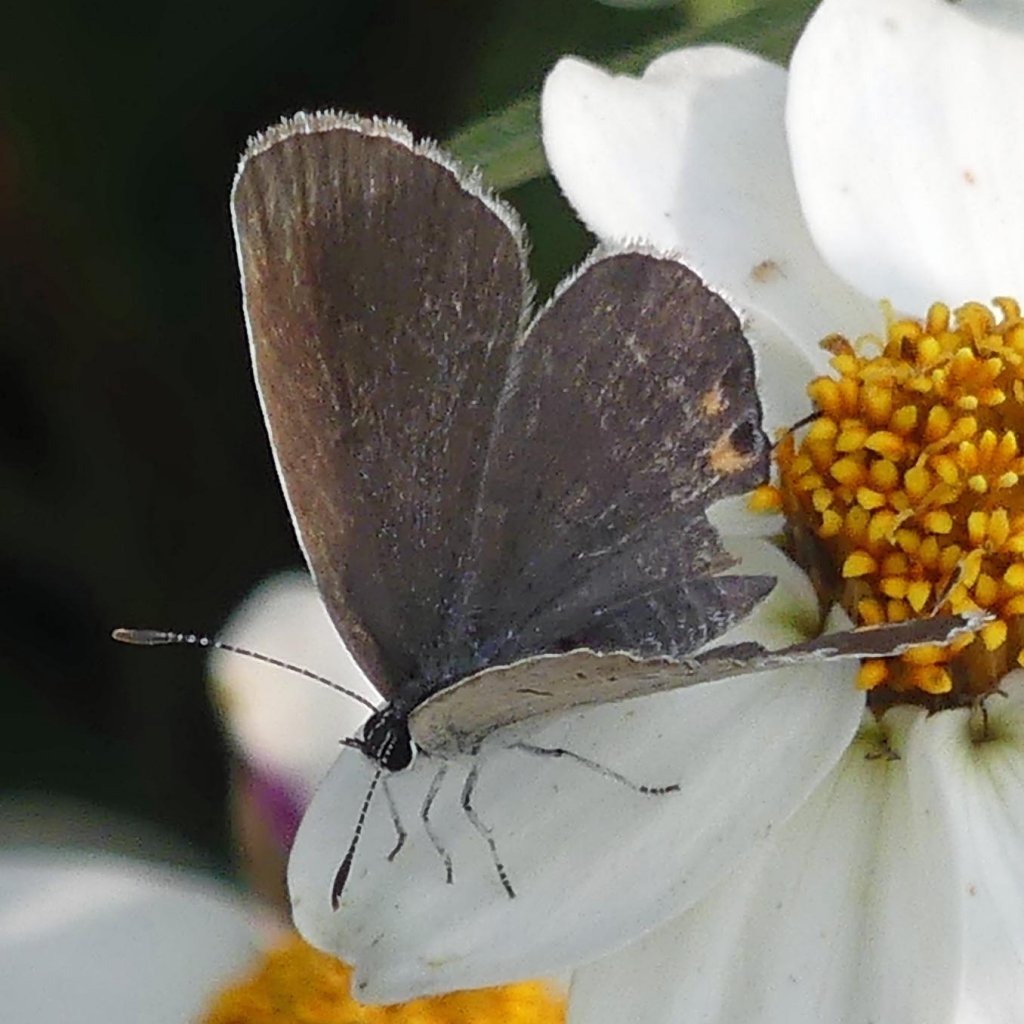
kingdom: Animalia
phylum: Arthropoda
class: Insecta
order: Lepidoptera
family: Lycaenidae
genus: Elkalyce
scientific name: Elkalyce comyntas
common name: Eastern Tailed-Blue
